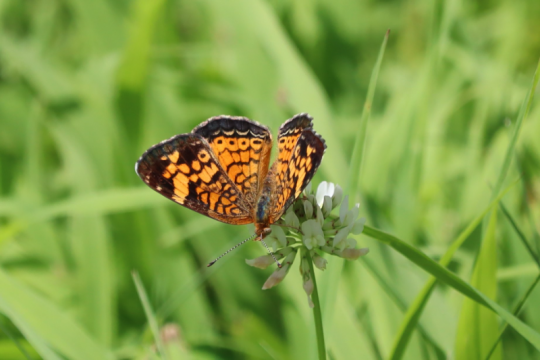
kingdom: Animalia
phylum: Arthropoda
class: Insecta
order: Lepidoptera
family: Nymphalidae
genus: Phyciodes
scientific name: Phyciodes
